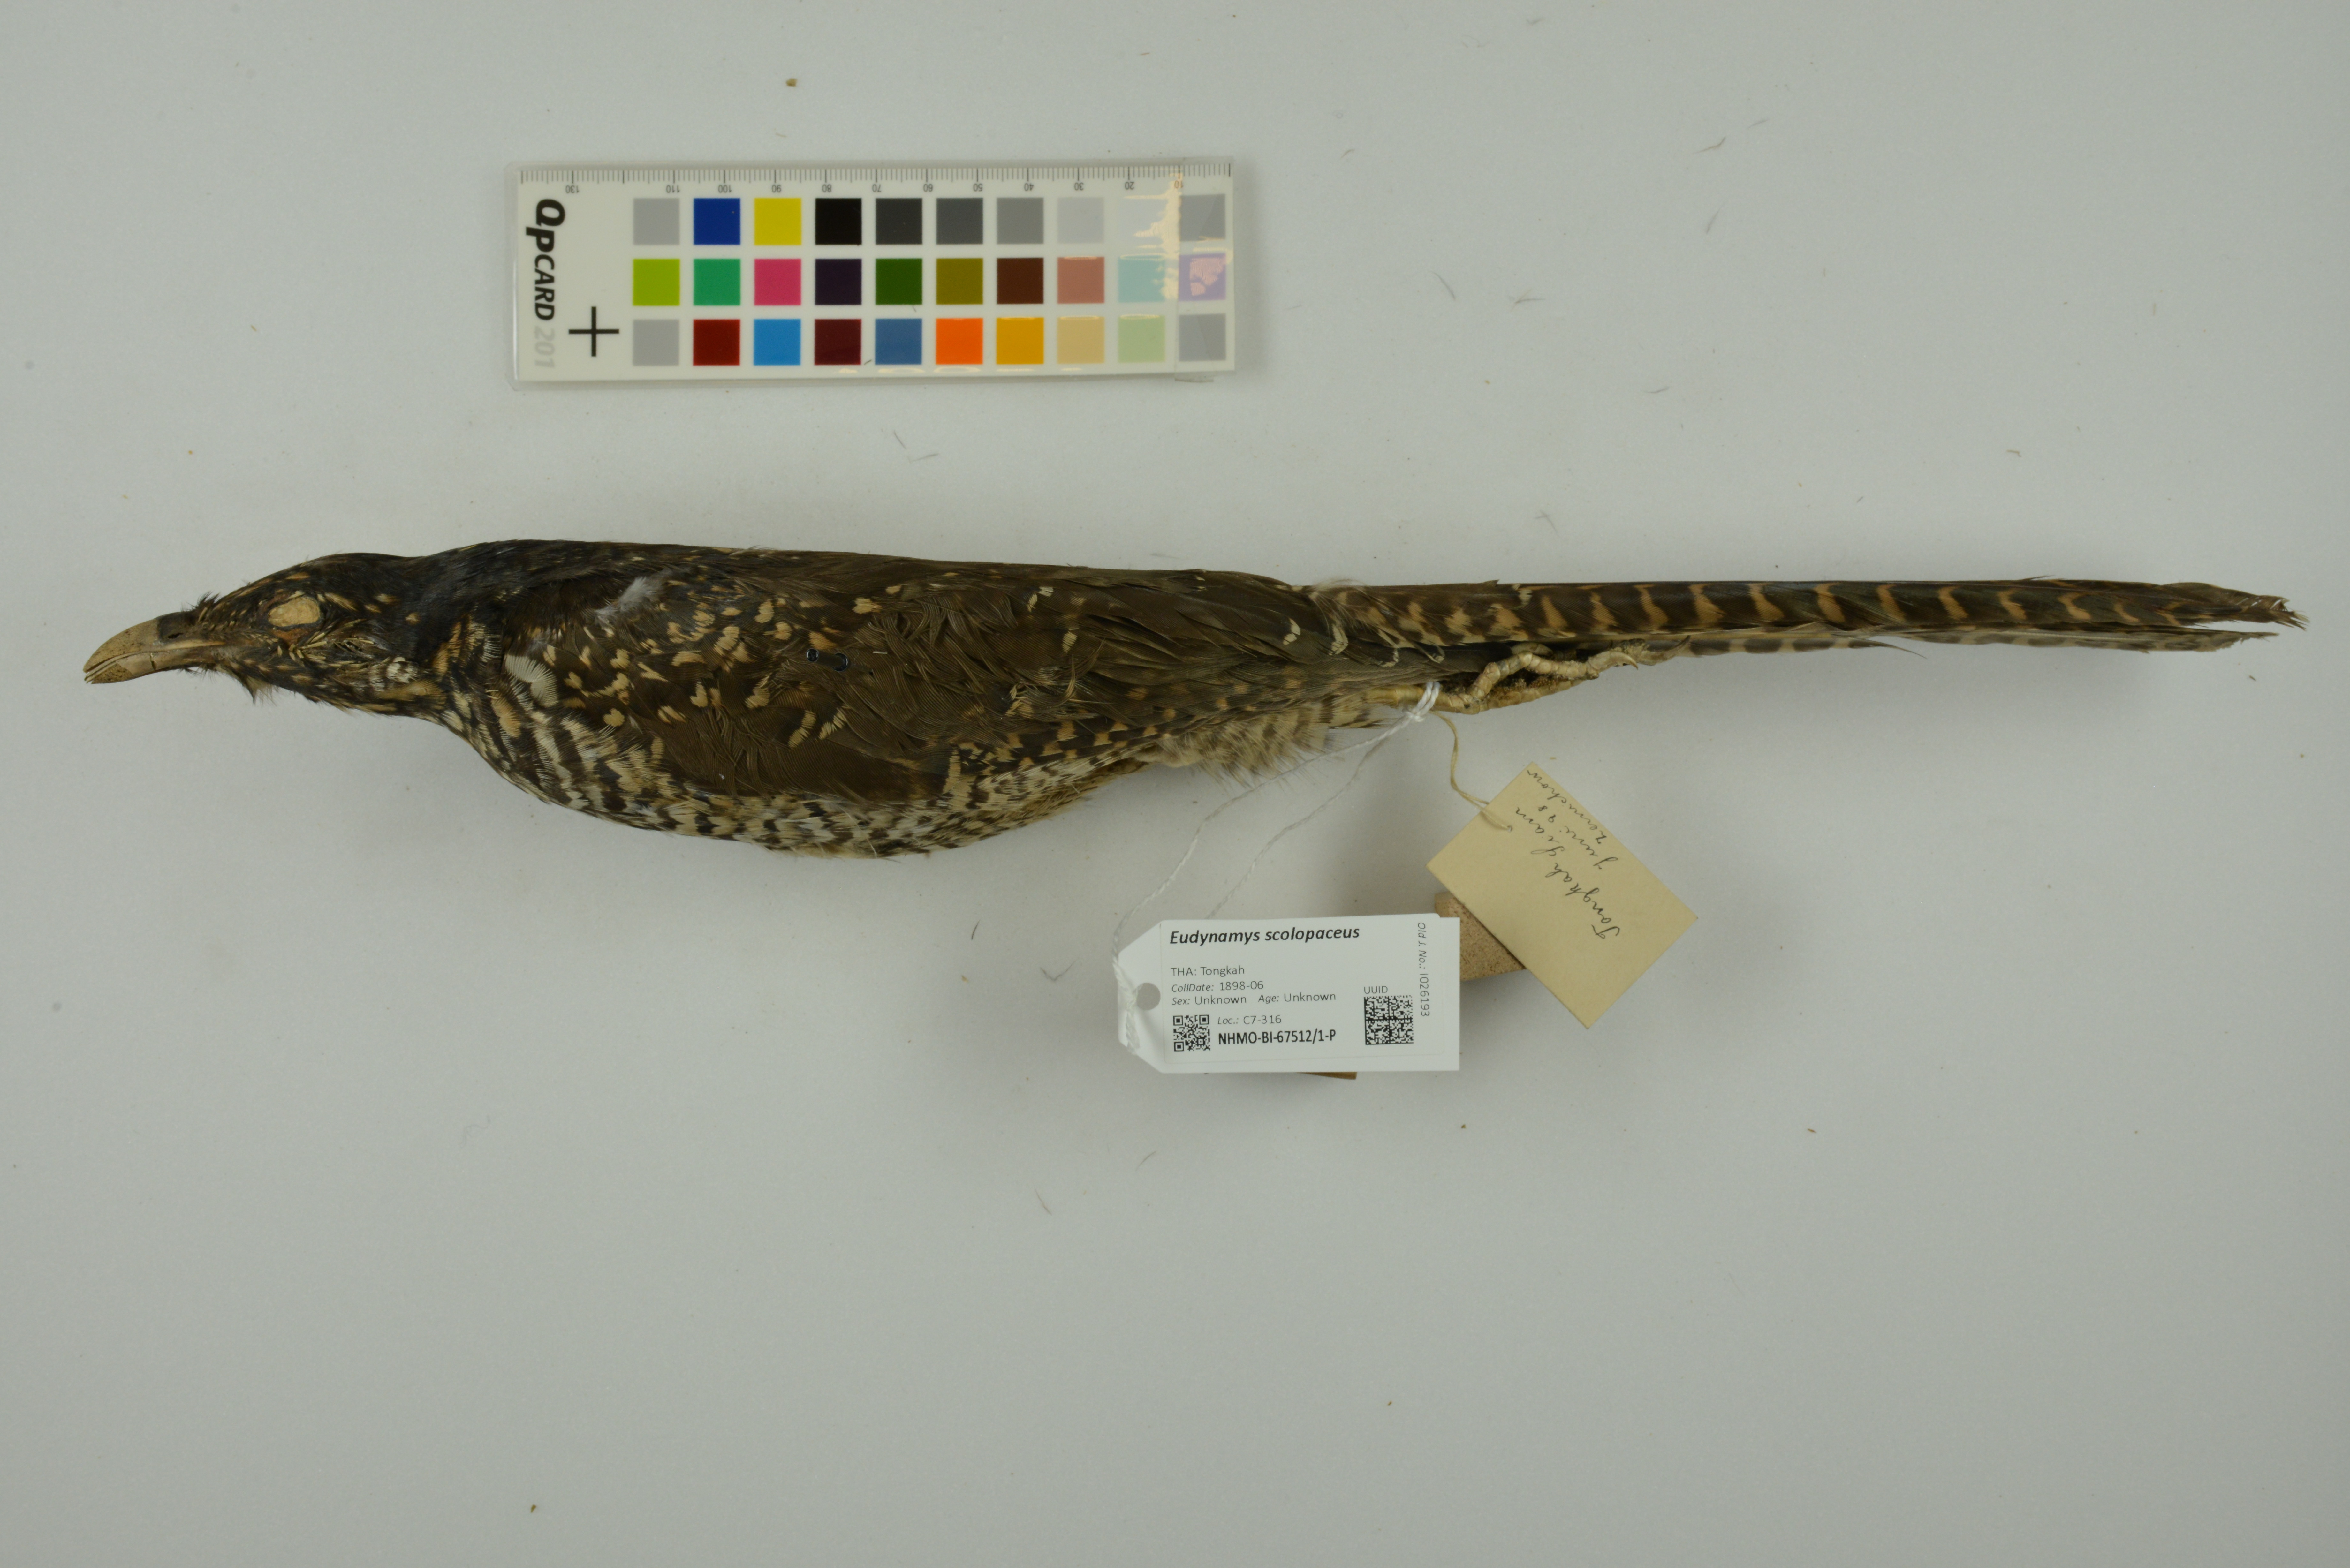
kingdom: Animalia
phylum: Chordata
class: Aves
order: Cuculiformes
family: Cuculidae
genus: Eudynamys
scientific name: Eudynamys scolopaceus
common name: Asian koel
